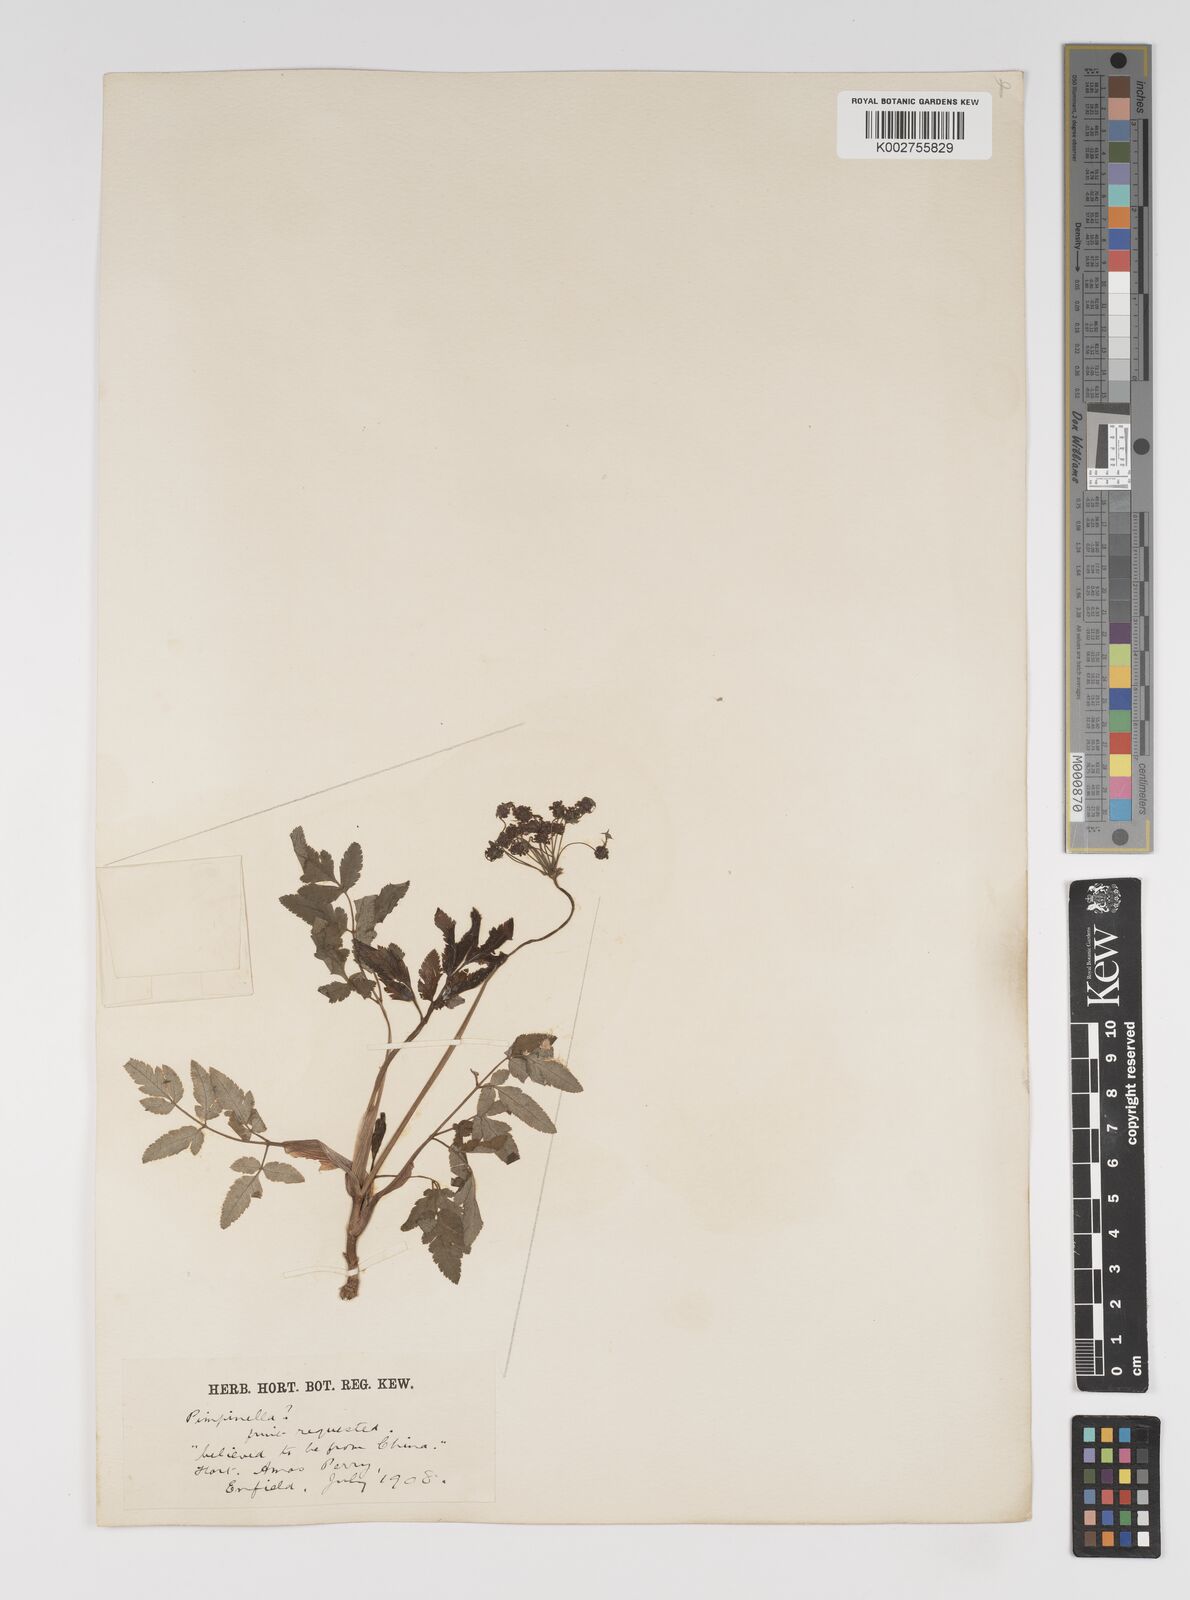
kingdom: Plantae
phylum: Tracheophyta
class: Magnoliopsida
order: Apiales
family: Apiaceae
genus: Pimpinella
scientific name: Pimpinella
